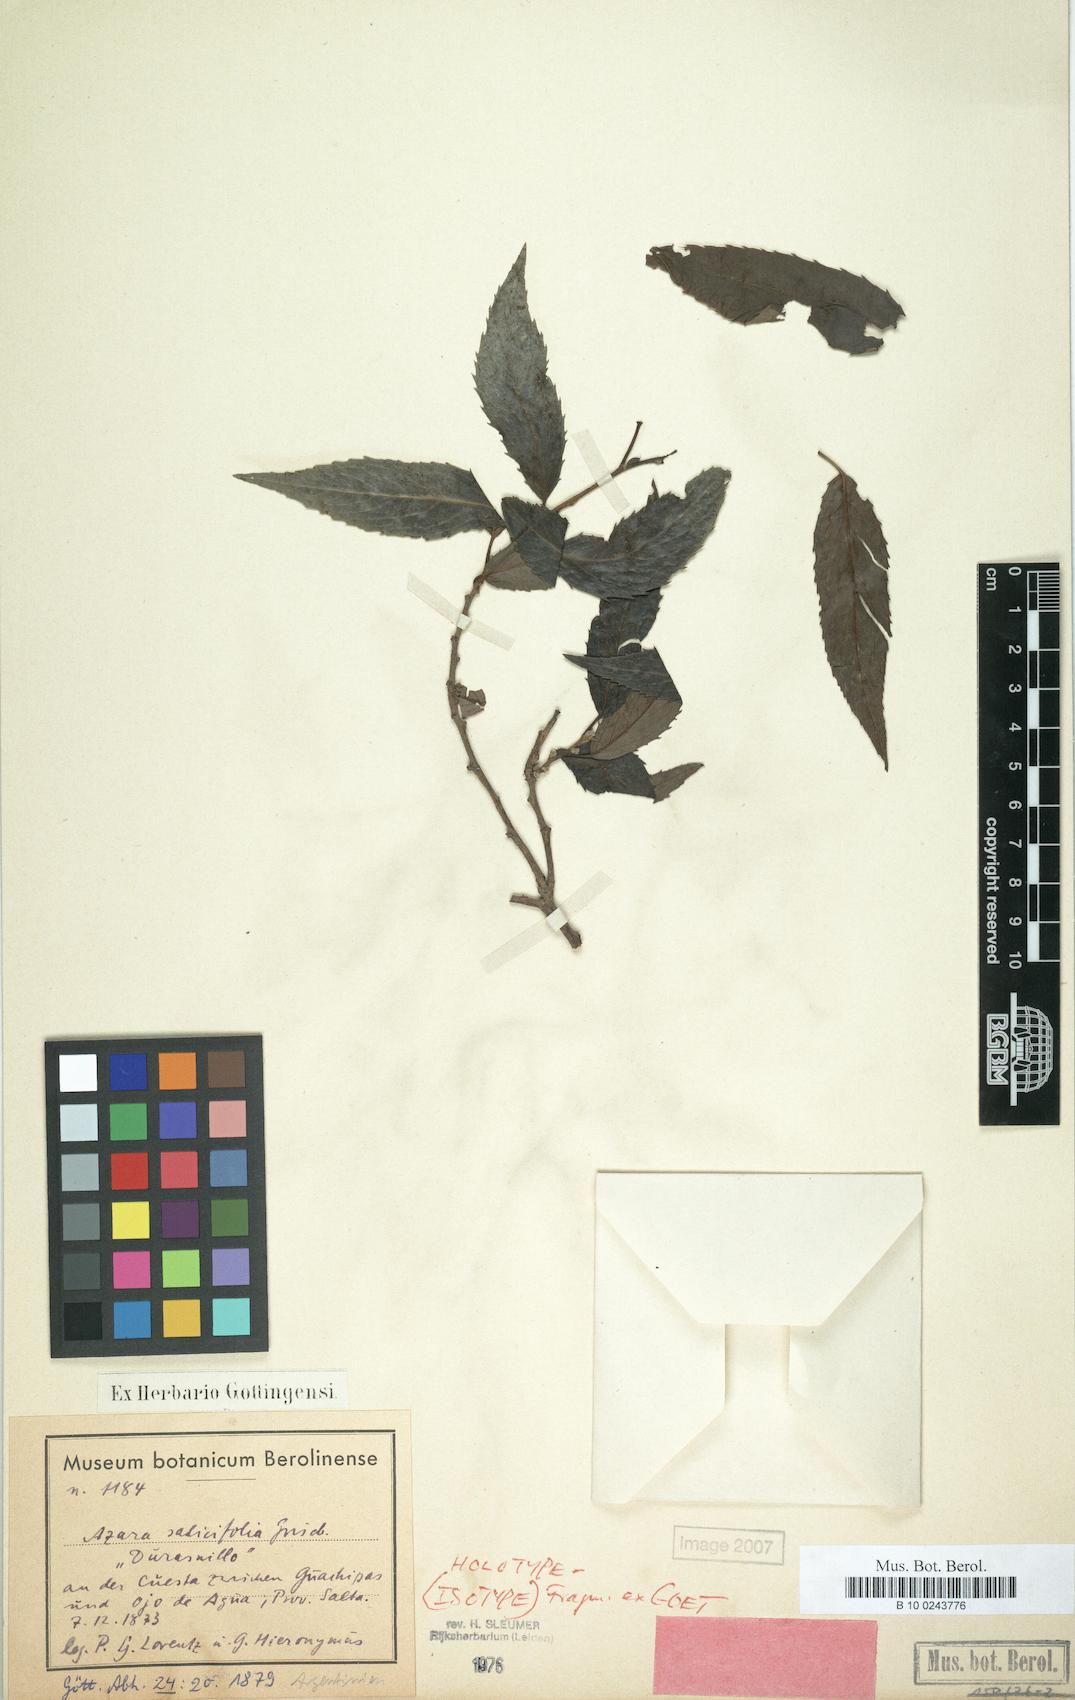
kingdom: Plantae
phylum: Tracheophyta
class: Magnoliopsida
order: Malpighiales
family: Salicaceae
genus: Azara
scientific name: Azara salicifolia
